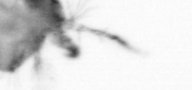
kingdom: Animalia
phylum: Arthropoda
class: Copepoda
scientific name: Copepoda
